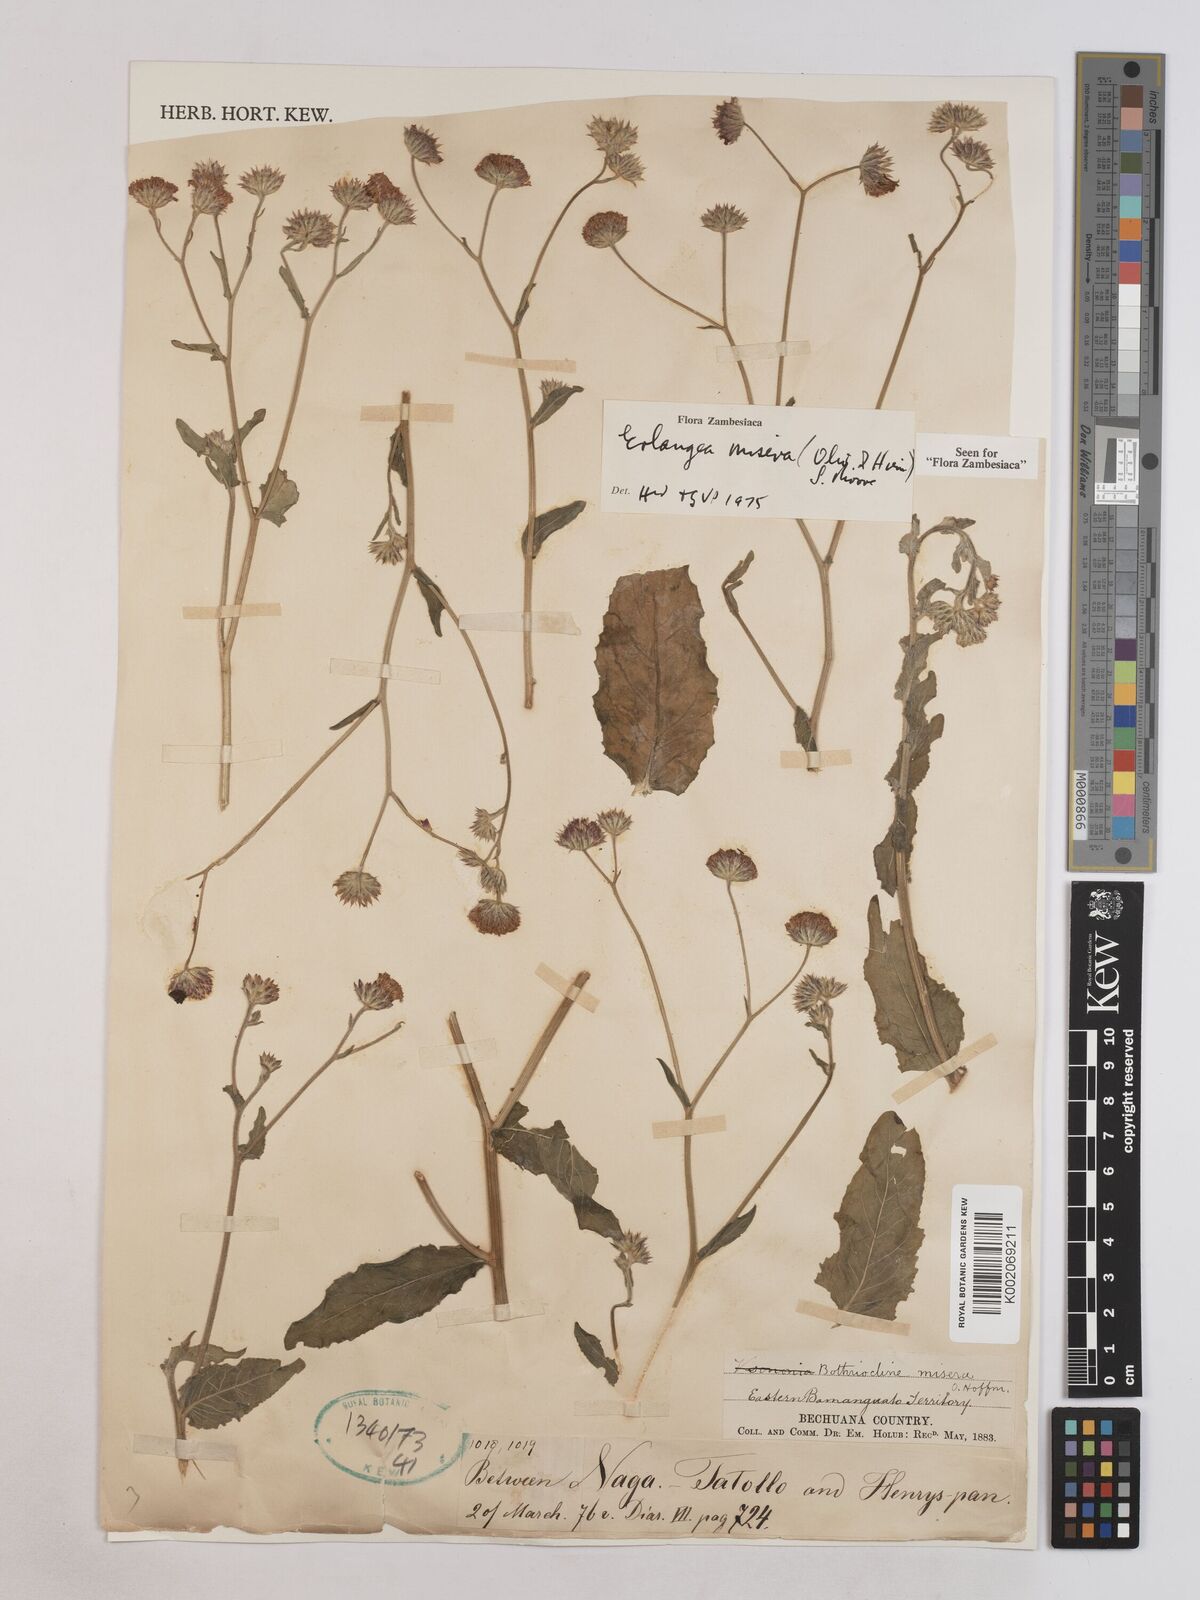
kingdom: Plantae
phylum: Tracheophyta
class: Magnoliopsida
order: Asterales
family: Asteraceae
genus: Erlangea
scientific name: Erlangea misera
